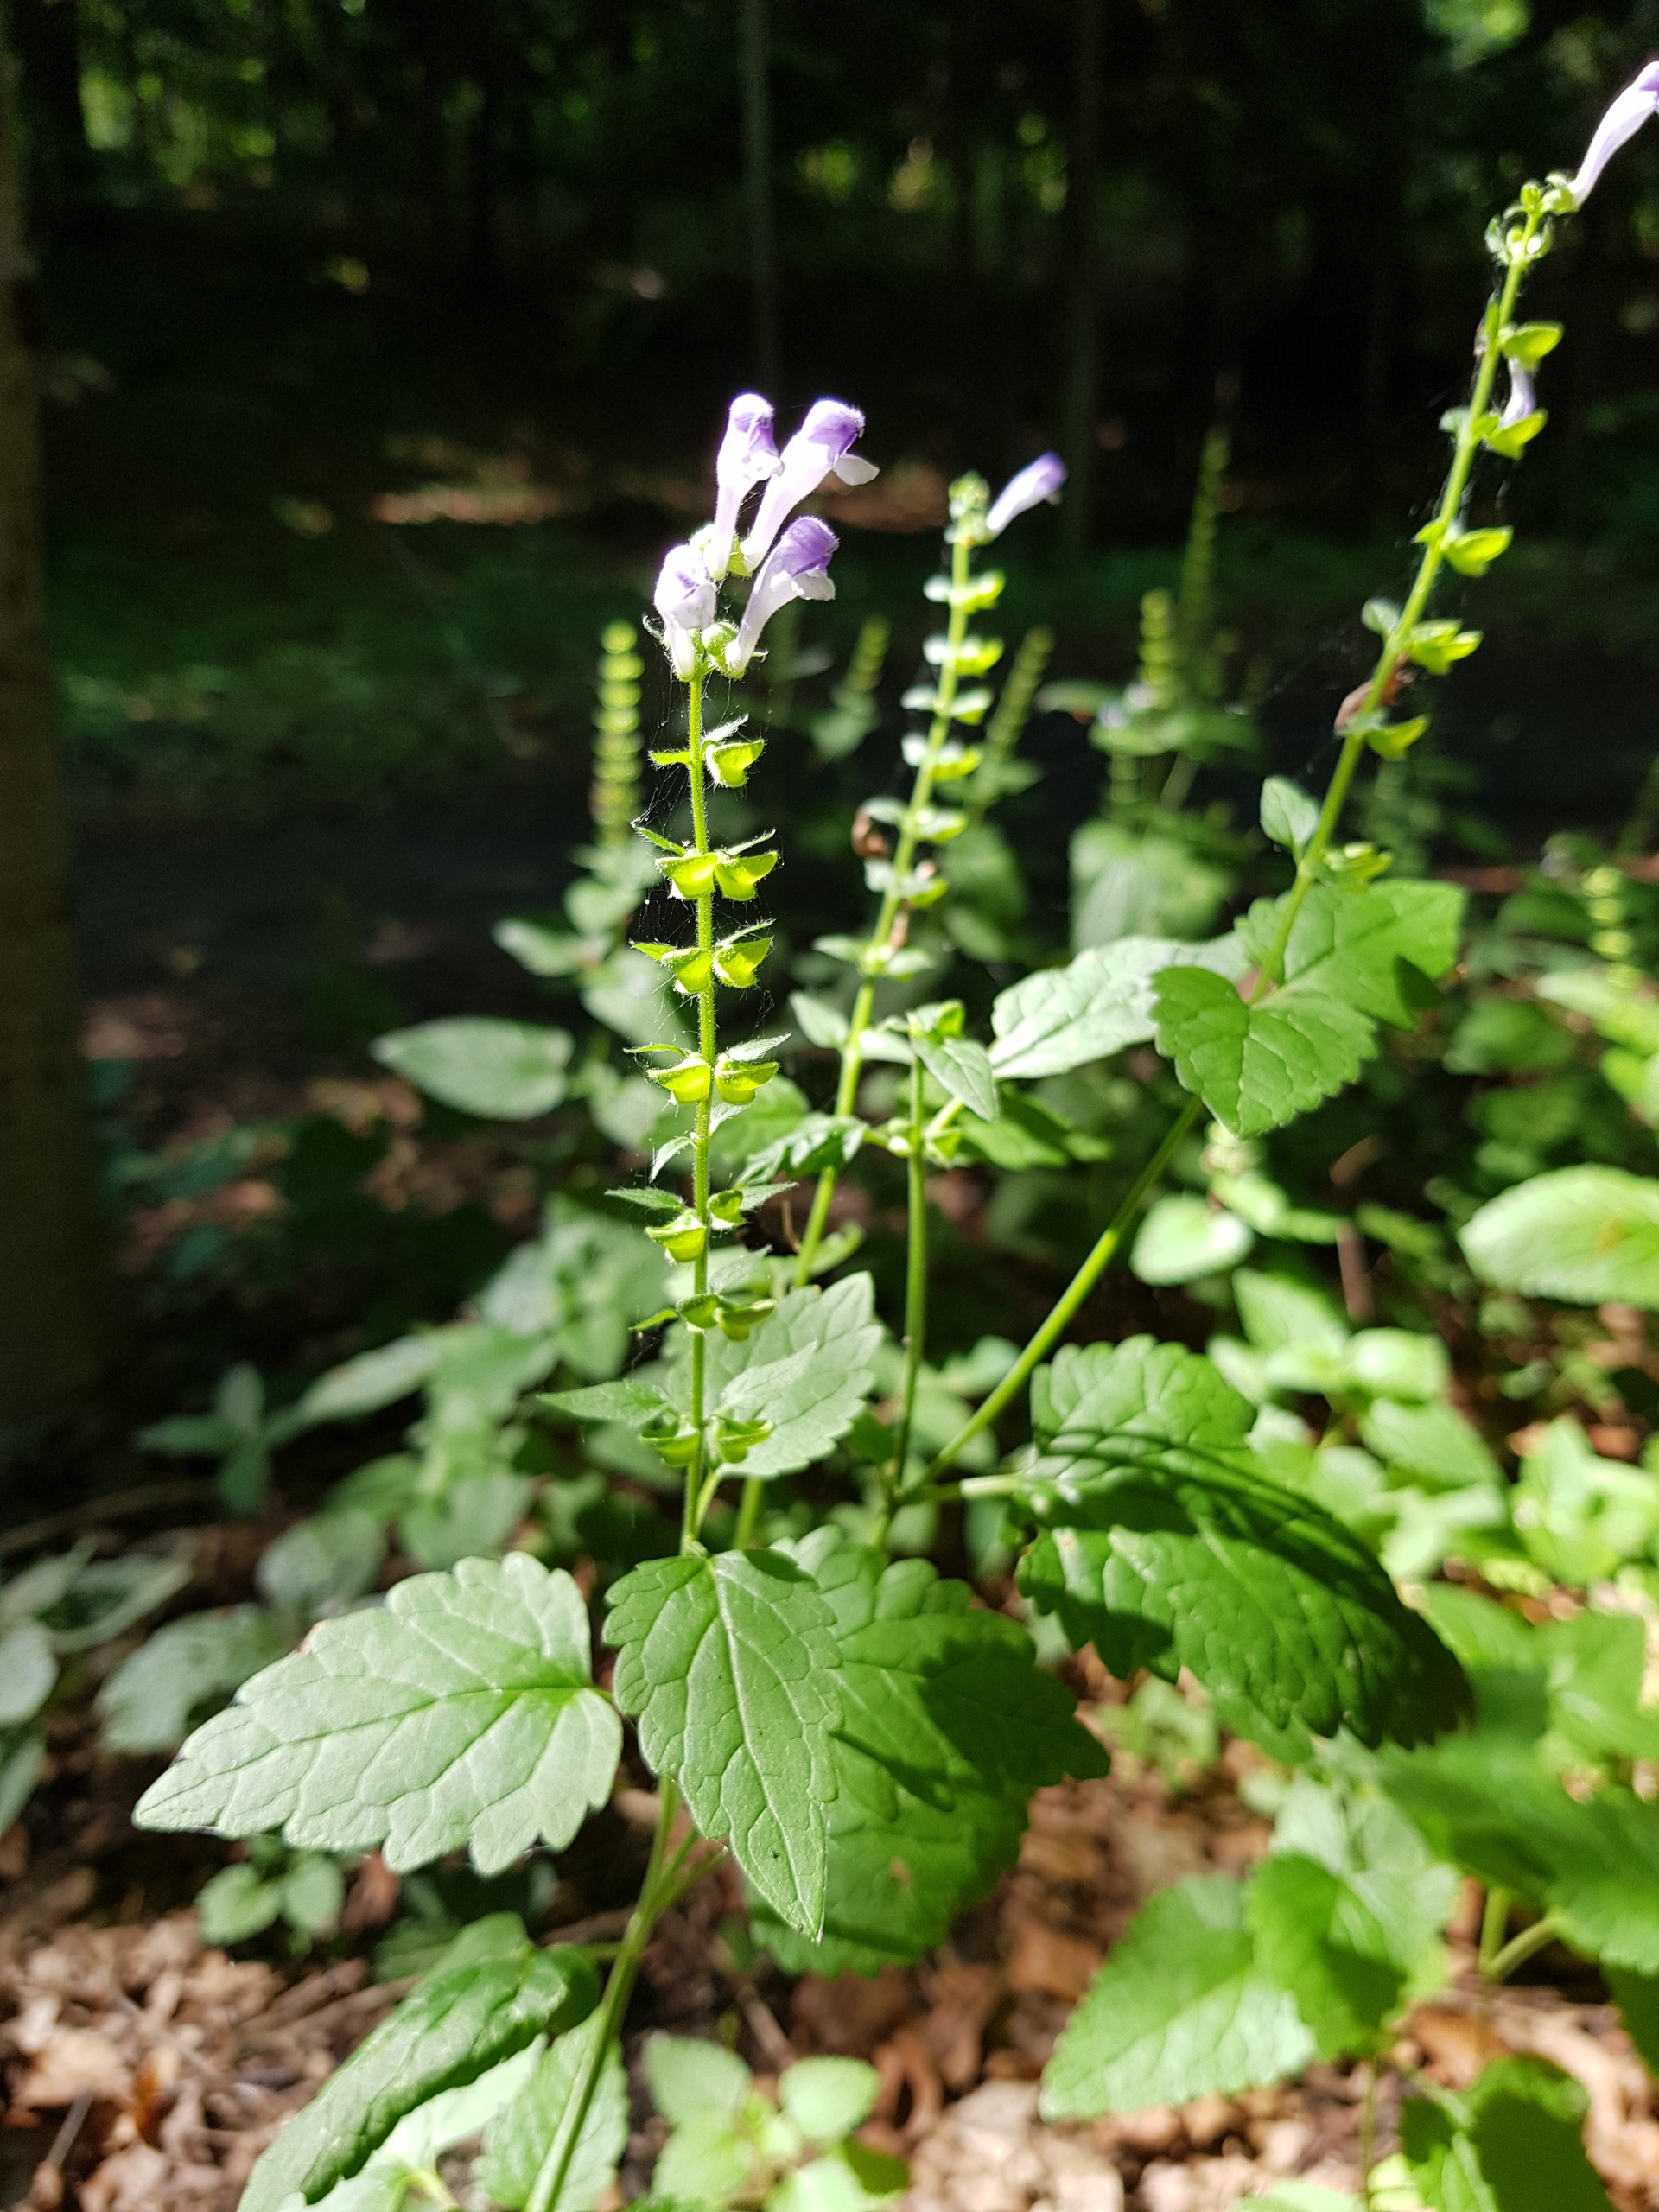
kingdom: Plantae
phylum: Tracheophyta
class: Magnoliopsida
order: Lamiales
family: Lamiaceae
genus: Scutellaria
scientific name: Scutellaria altissima
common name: Høj skjolddrager
